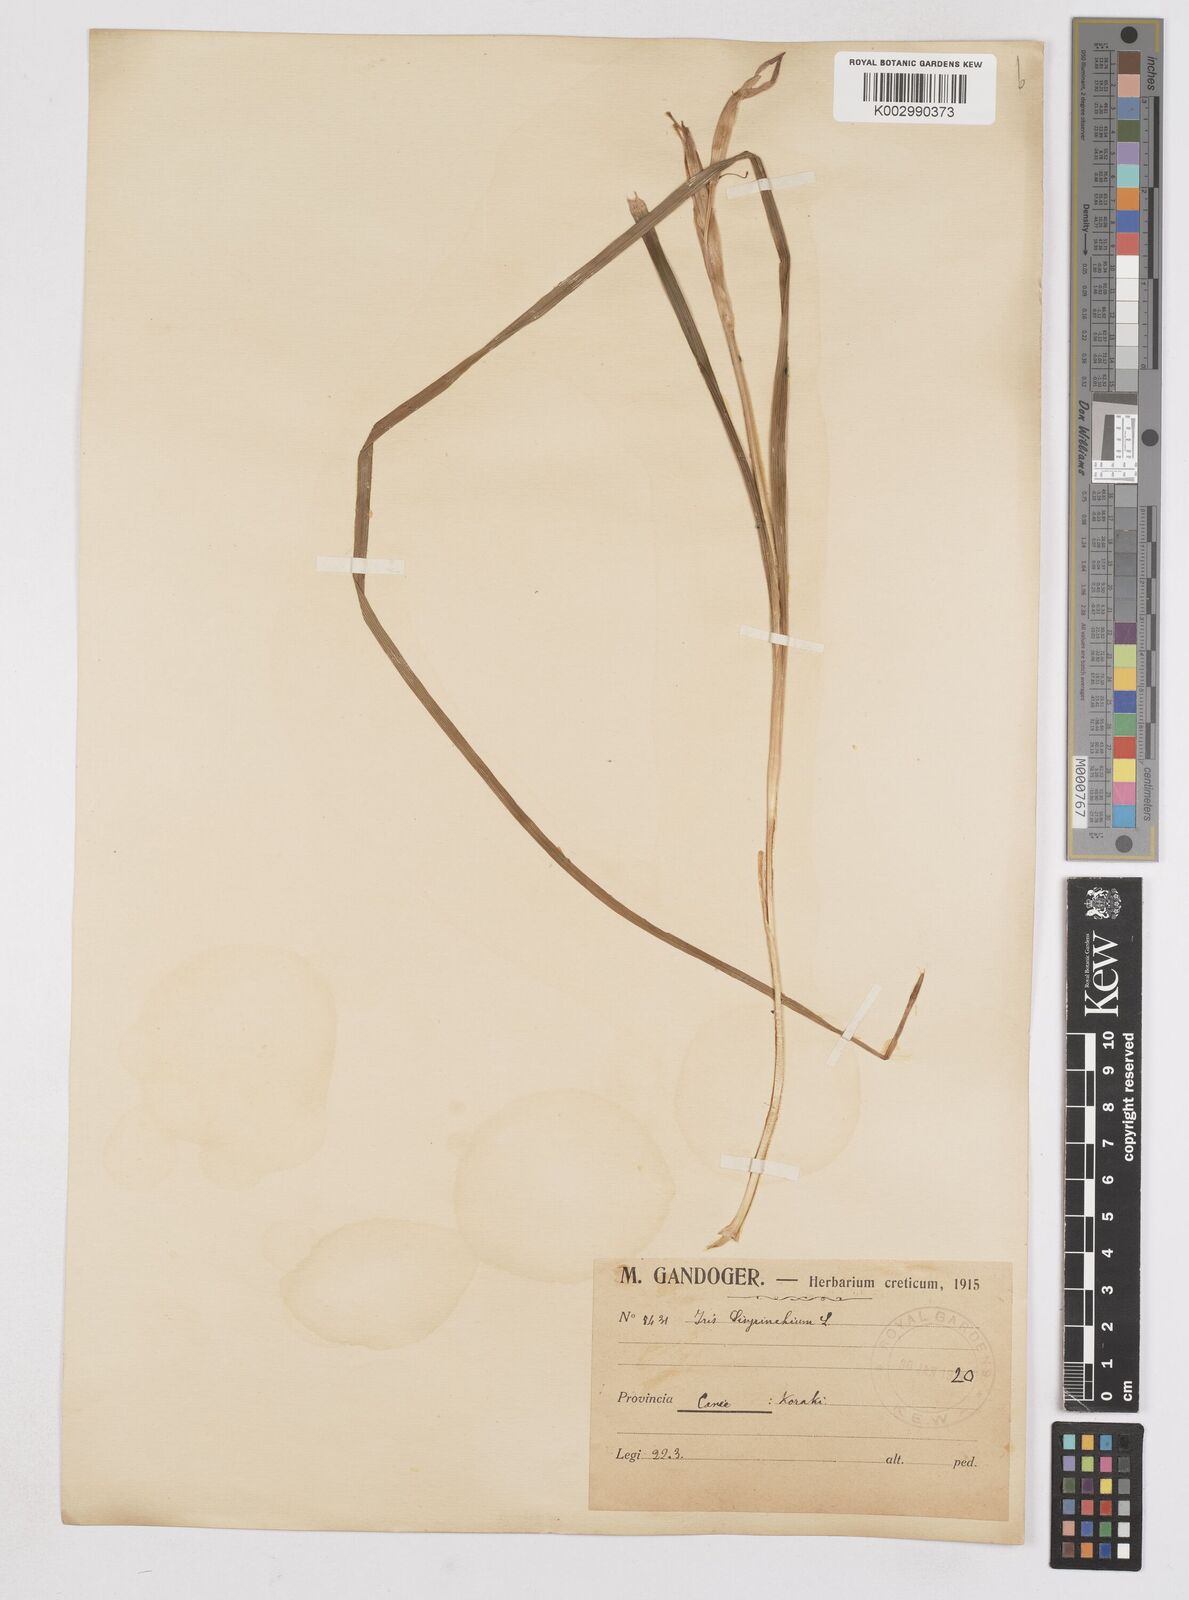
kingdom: Plantae
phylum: Tracheophyta
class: Liliopsida
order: Asparagales
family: Iridaceae
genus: Moraea
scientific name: Moraea sisyrinchium
